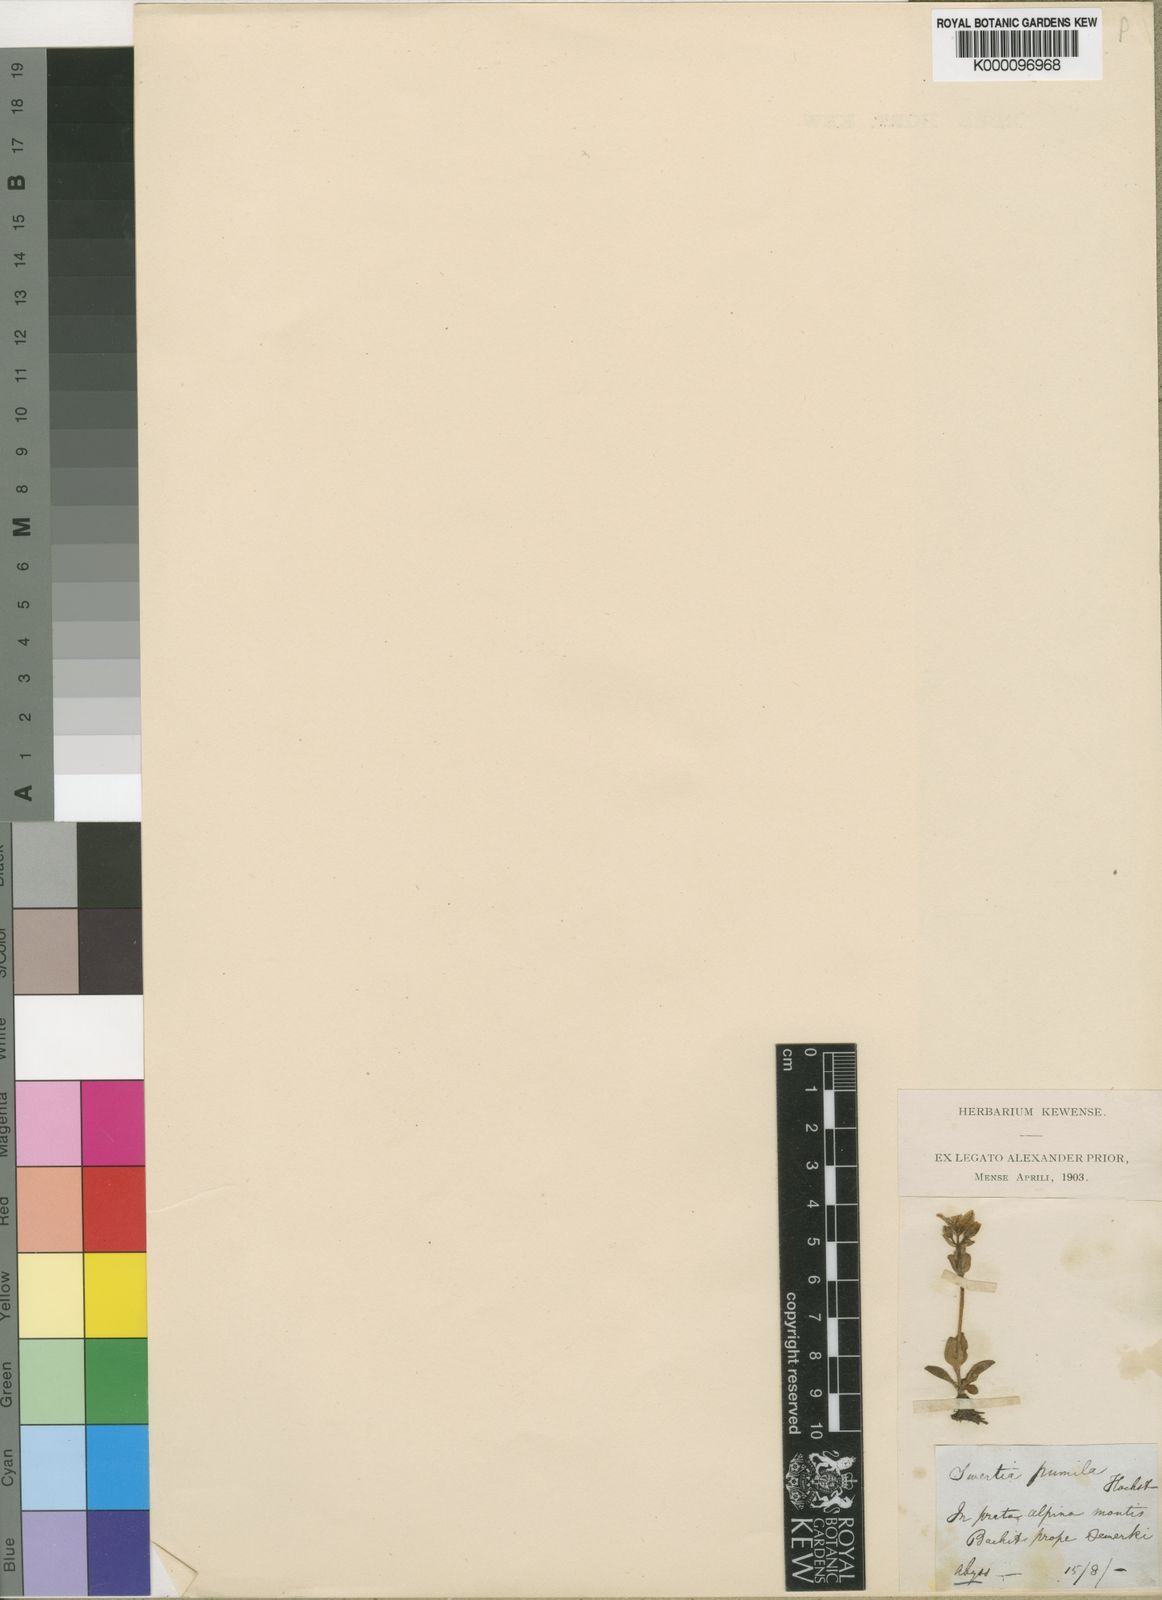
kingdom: Plantae
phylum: Tracheophyta
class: Magnoliopsida
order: Gentianales
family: Gentianaceae
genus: Swertia
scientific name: Swertia pumila
